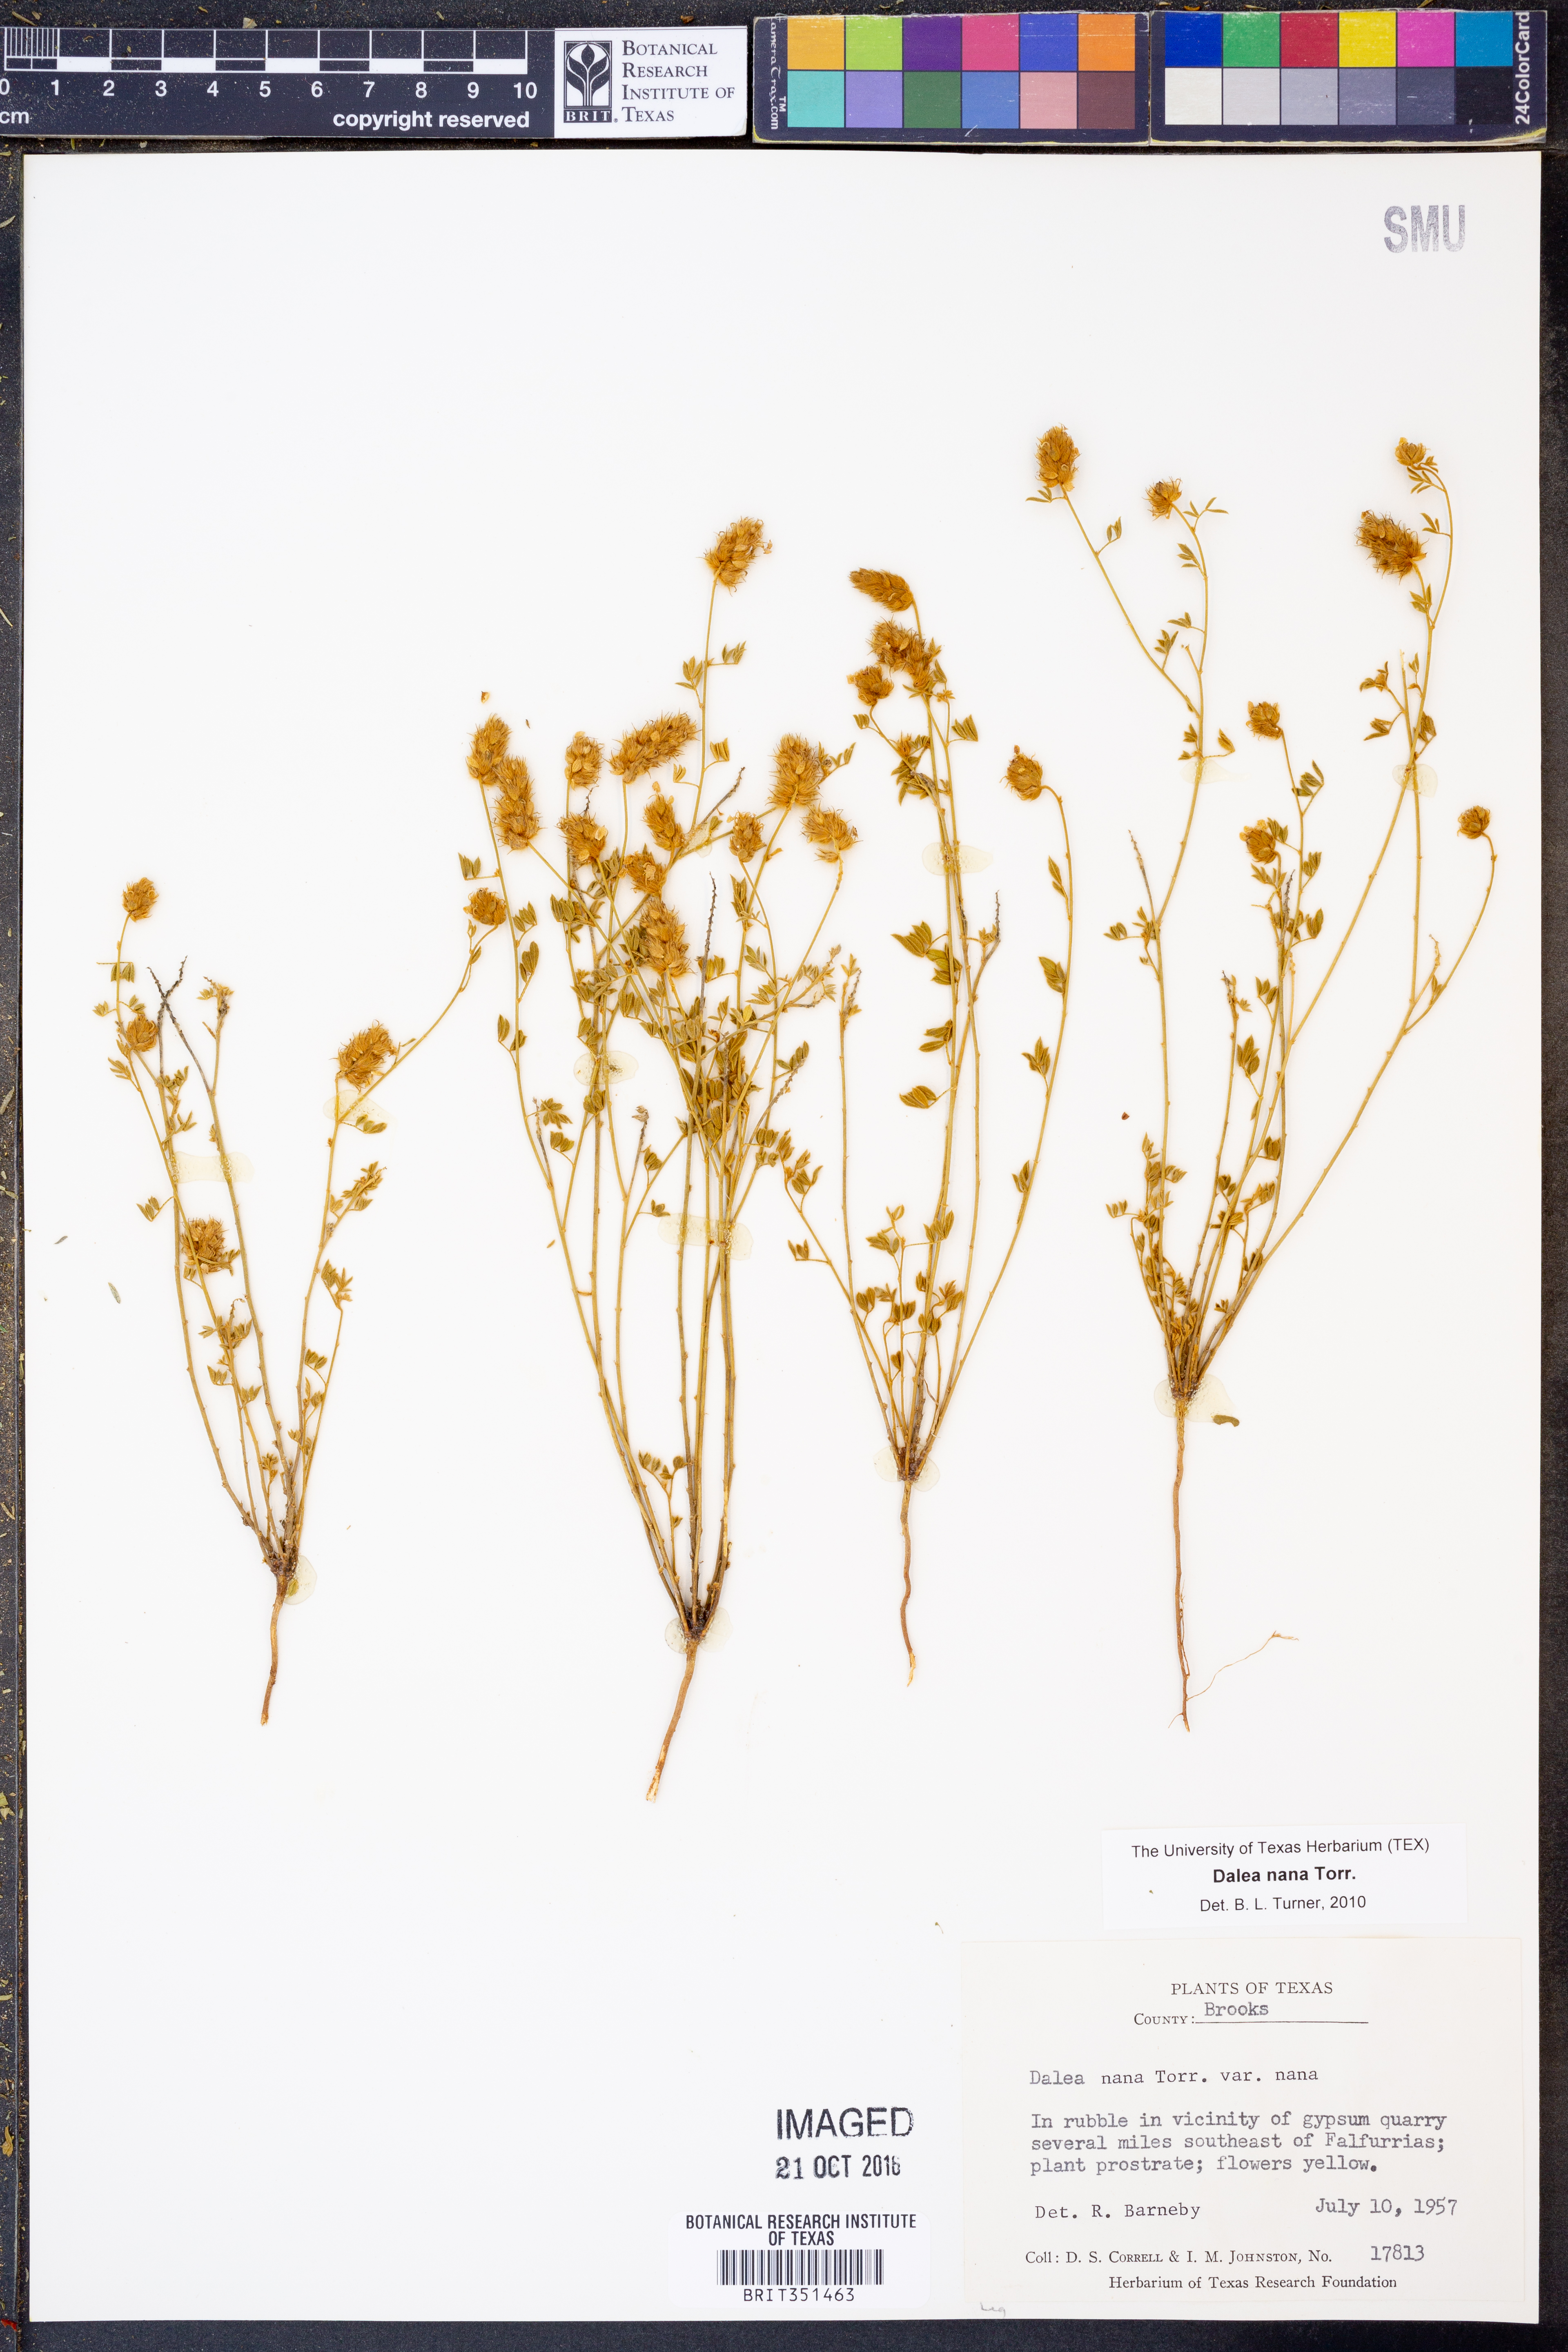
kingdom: Plantae
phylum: Tracheophyta
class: Magnoliopsida
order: Fabales
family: Fabaceae
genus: Dalea
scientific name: Dalea nana
